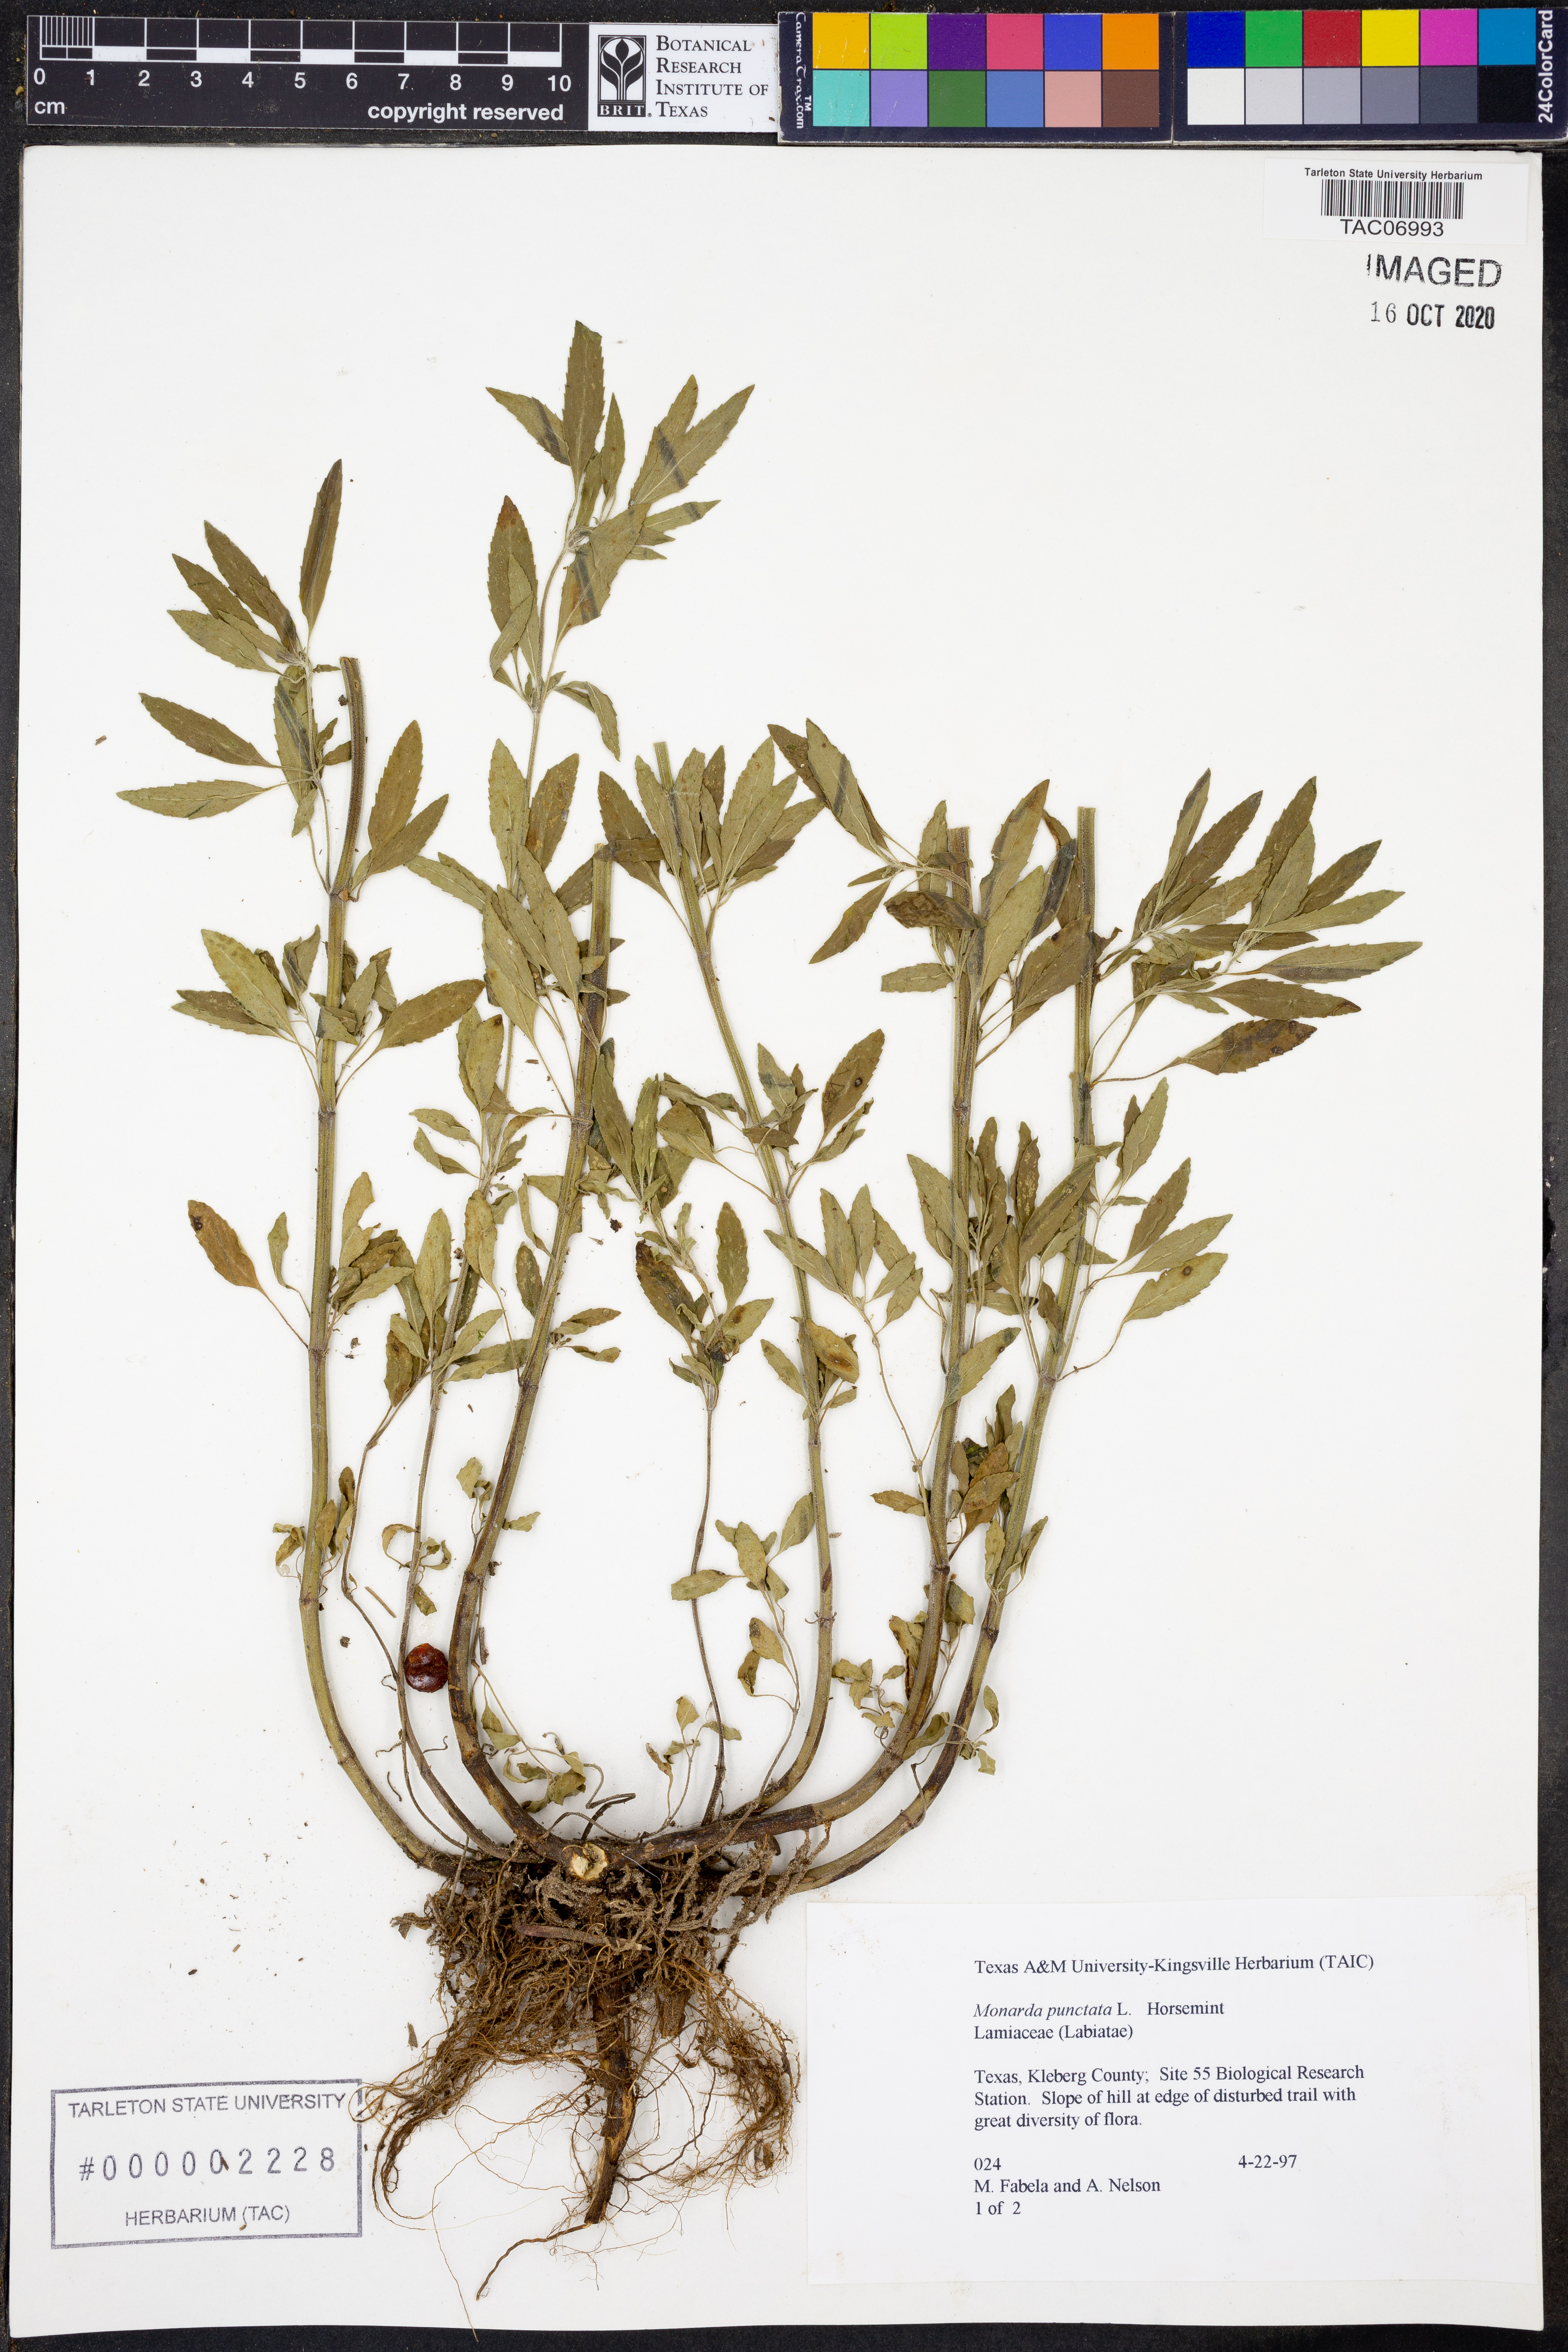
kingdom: Plantae
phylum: Tracheophyta
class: Magnoliopsida
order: Lamiales
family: Lamiaceae
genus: Monarda
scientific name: Monarda punctata
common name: Dotted monarda
